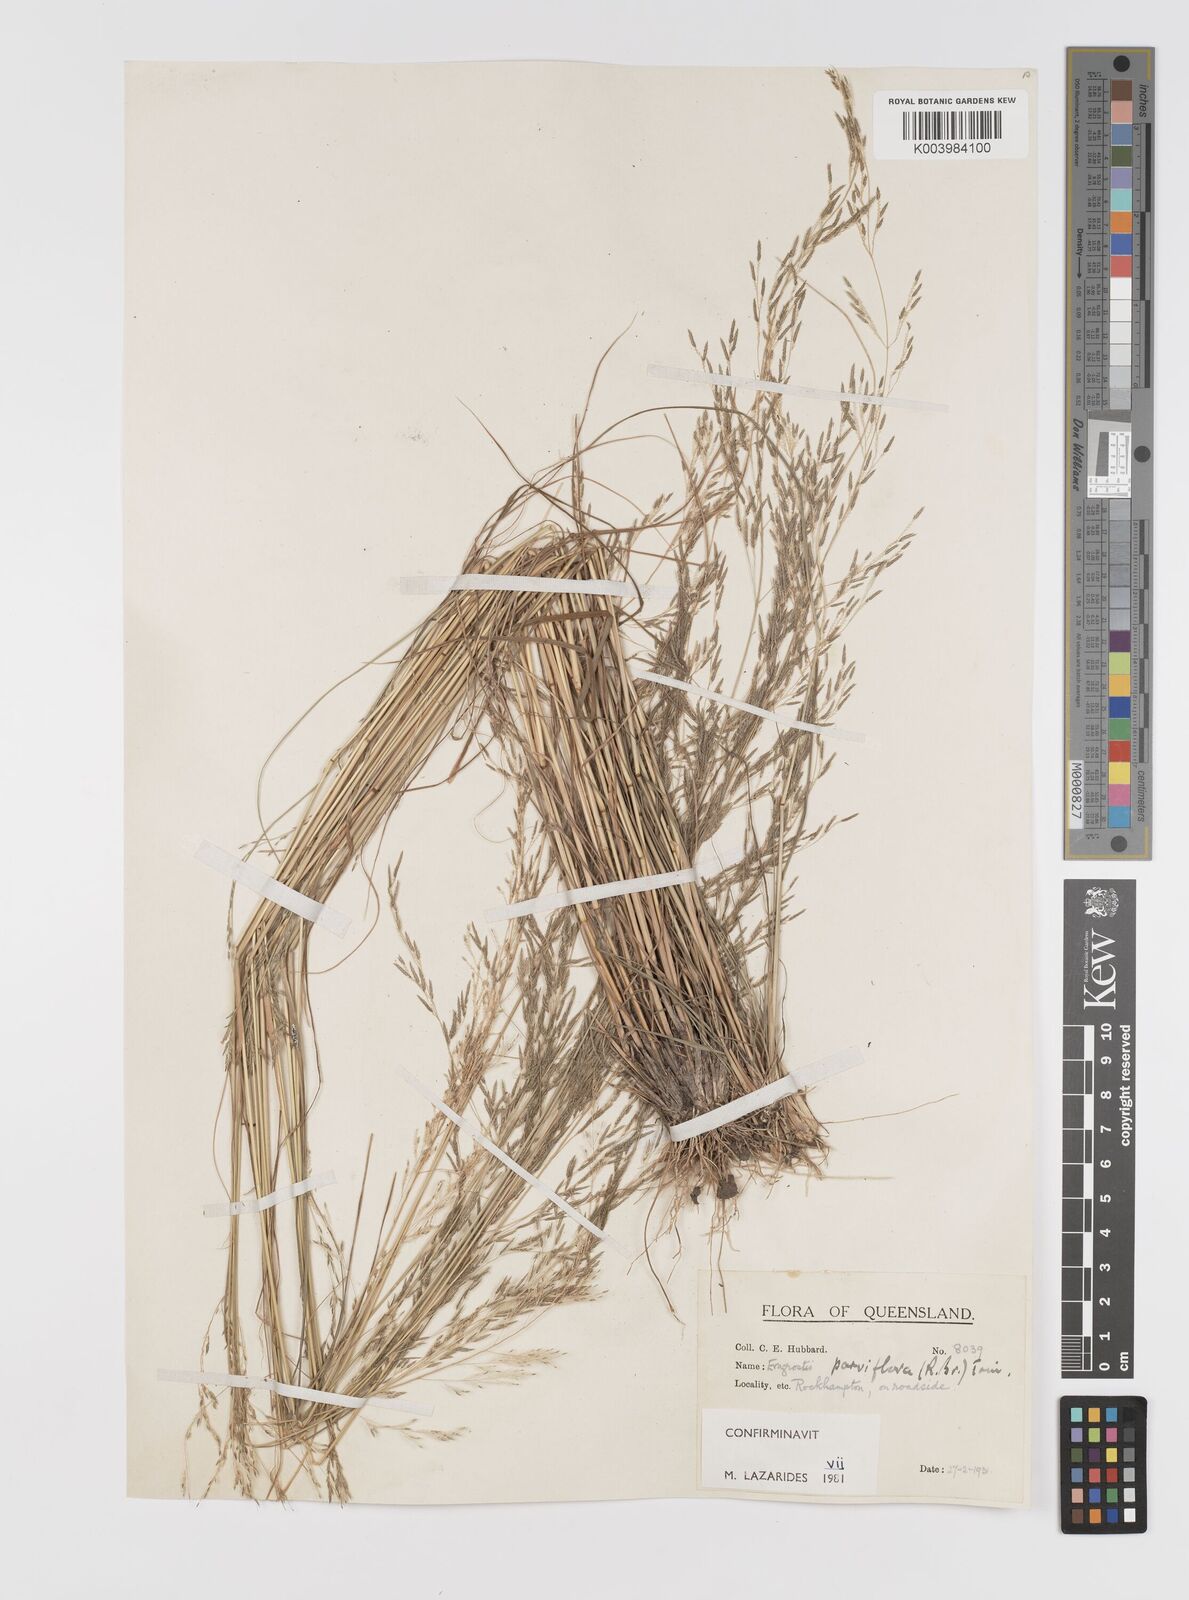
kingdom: Plantae
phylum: Tracheophyta
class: Liliopsida
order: Poales
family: Poaceae
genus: Eragrostis
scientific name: Eragrostis parviflora
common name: Weeping love-grass
